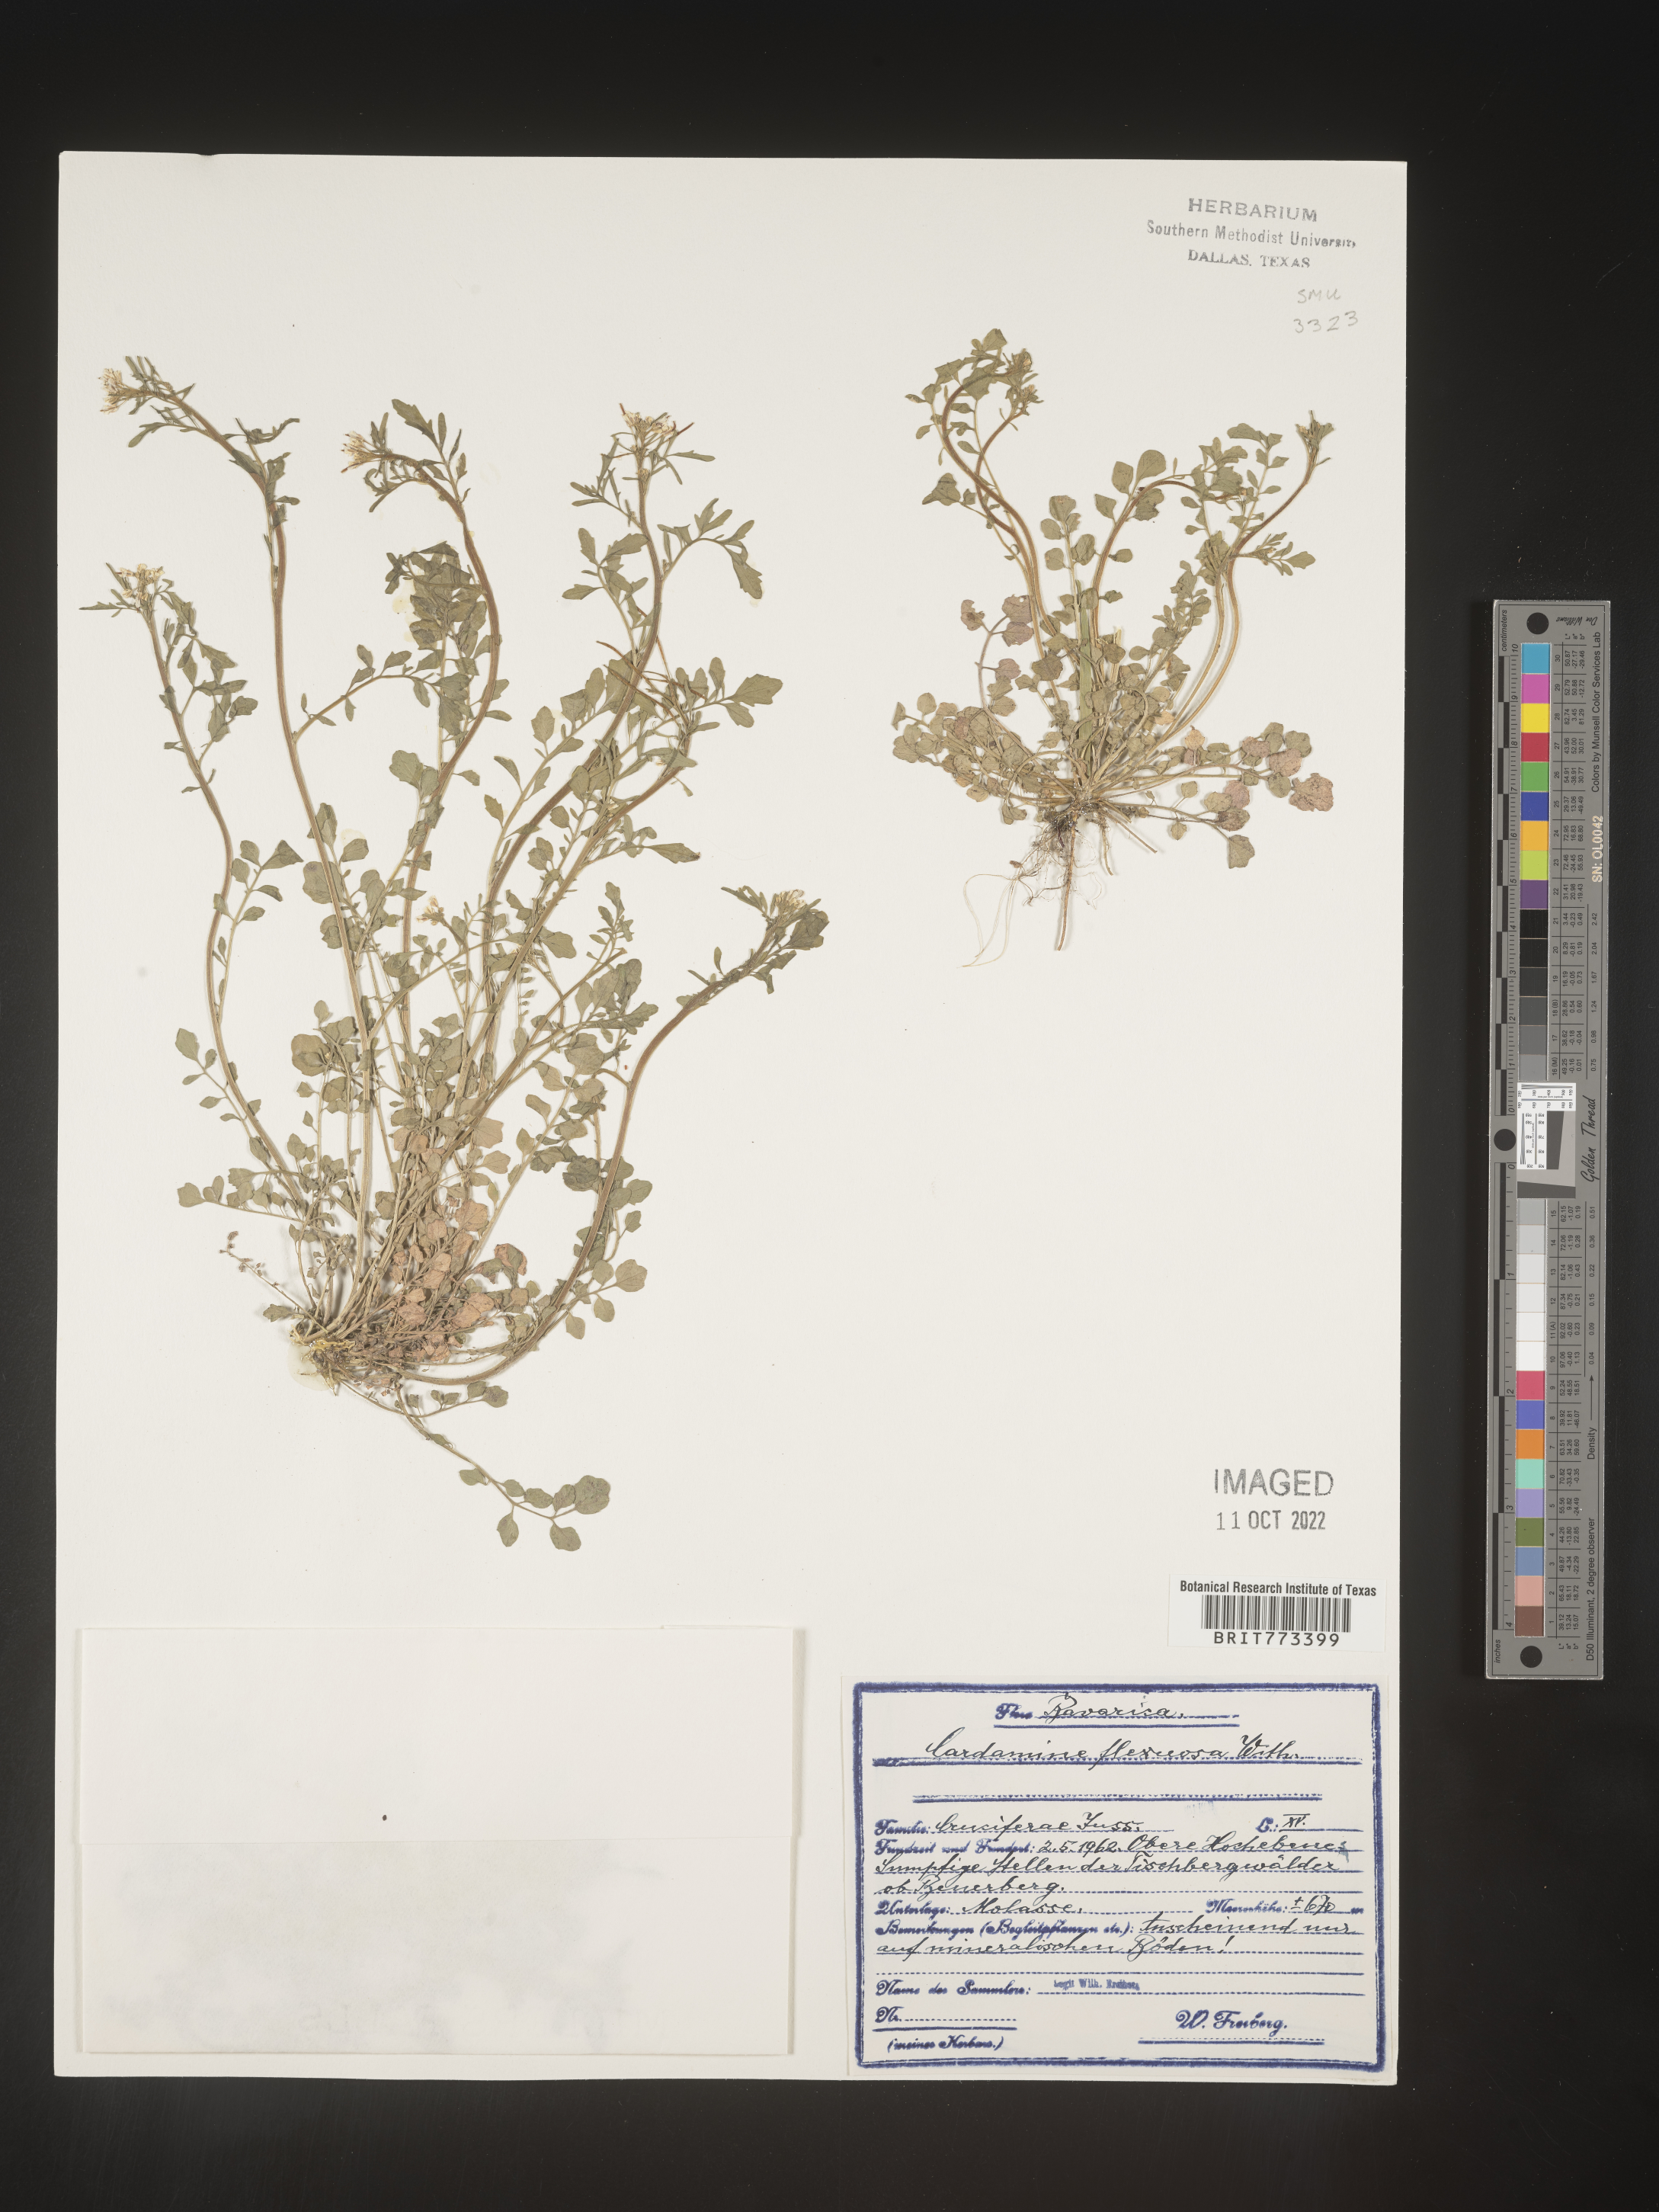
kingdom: Plantae
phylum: Tracheophyta
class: Magnoliopsida
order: Brassicales
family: Brassicaceae
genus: Cardamine
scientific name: Cardamine
